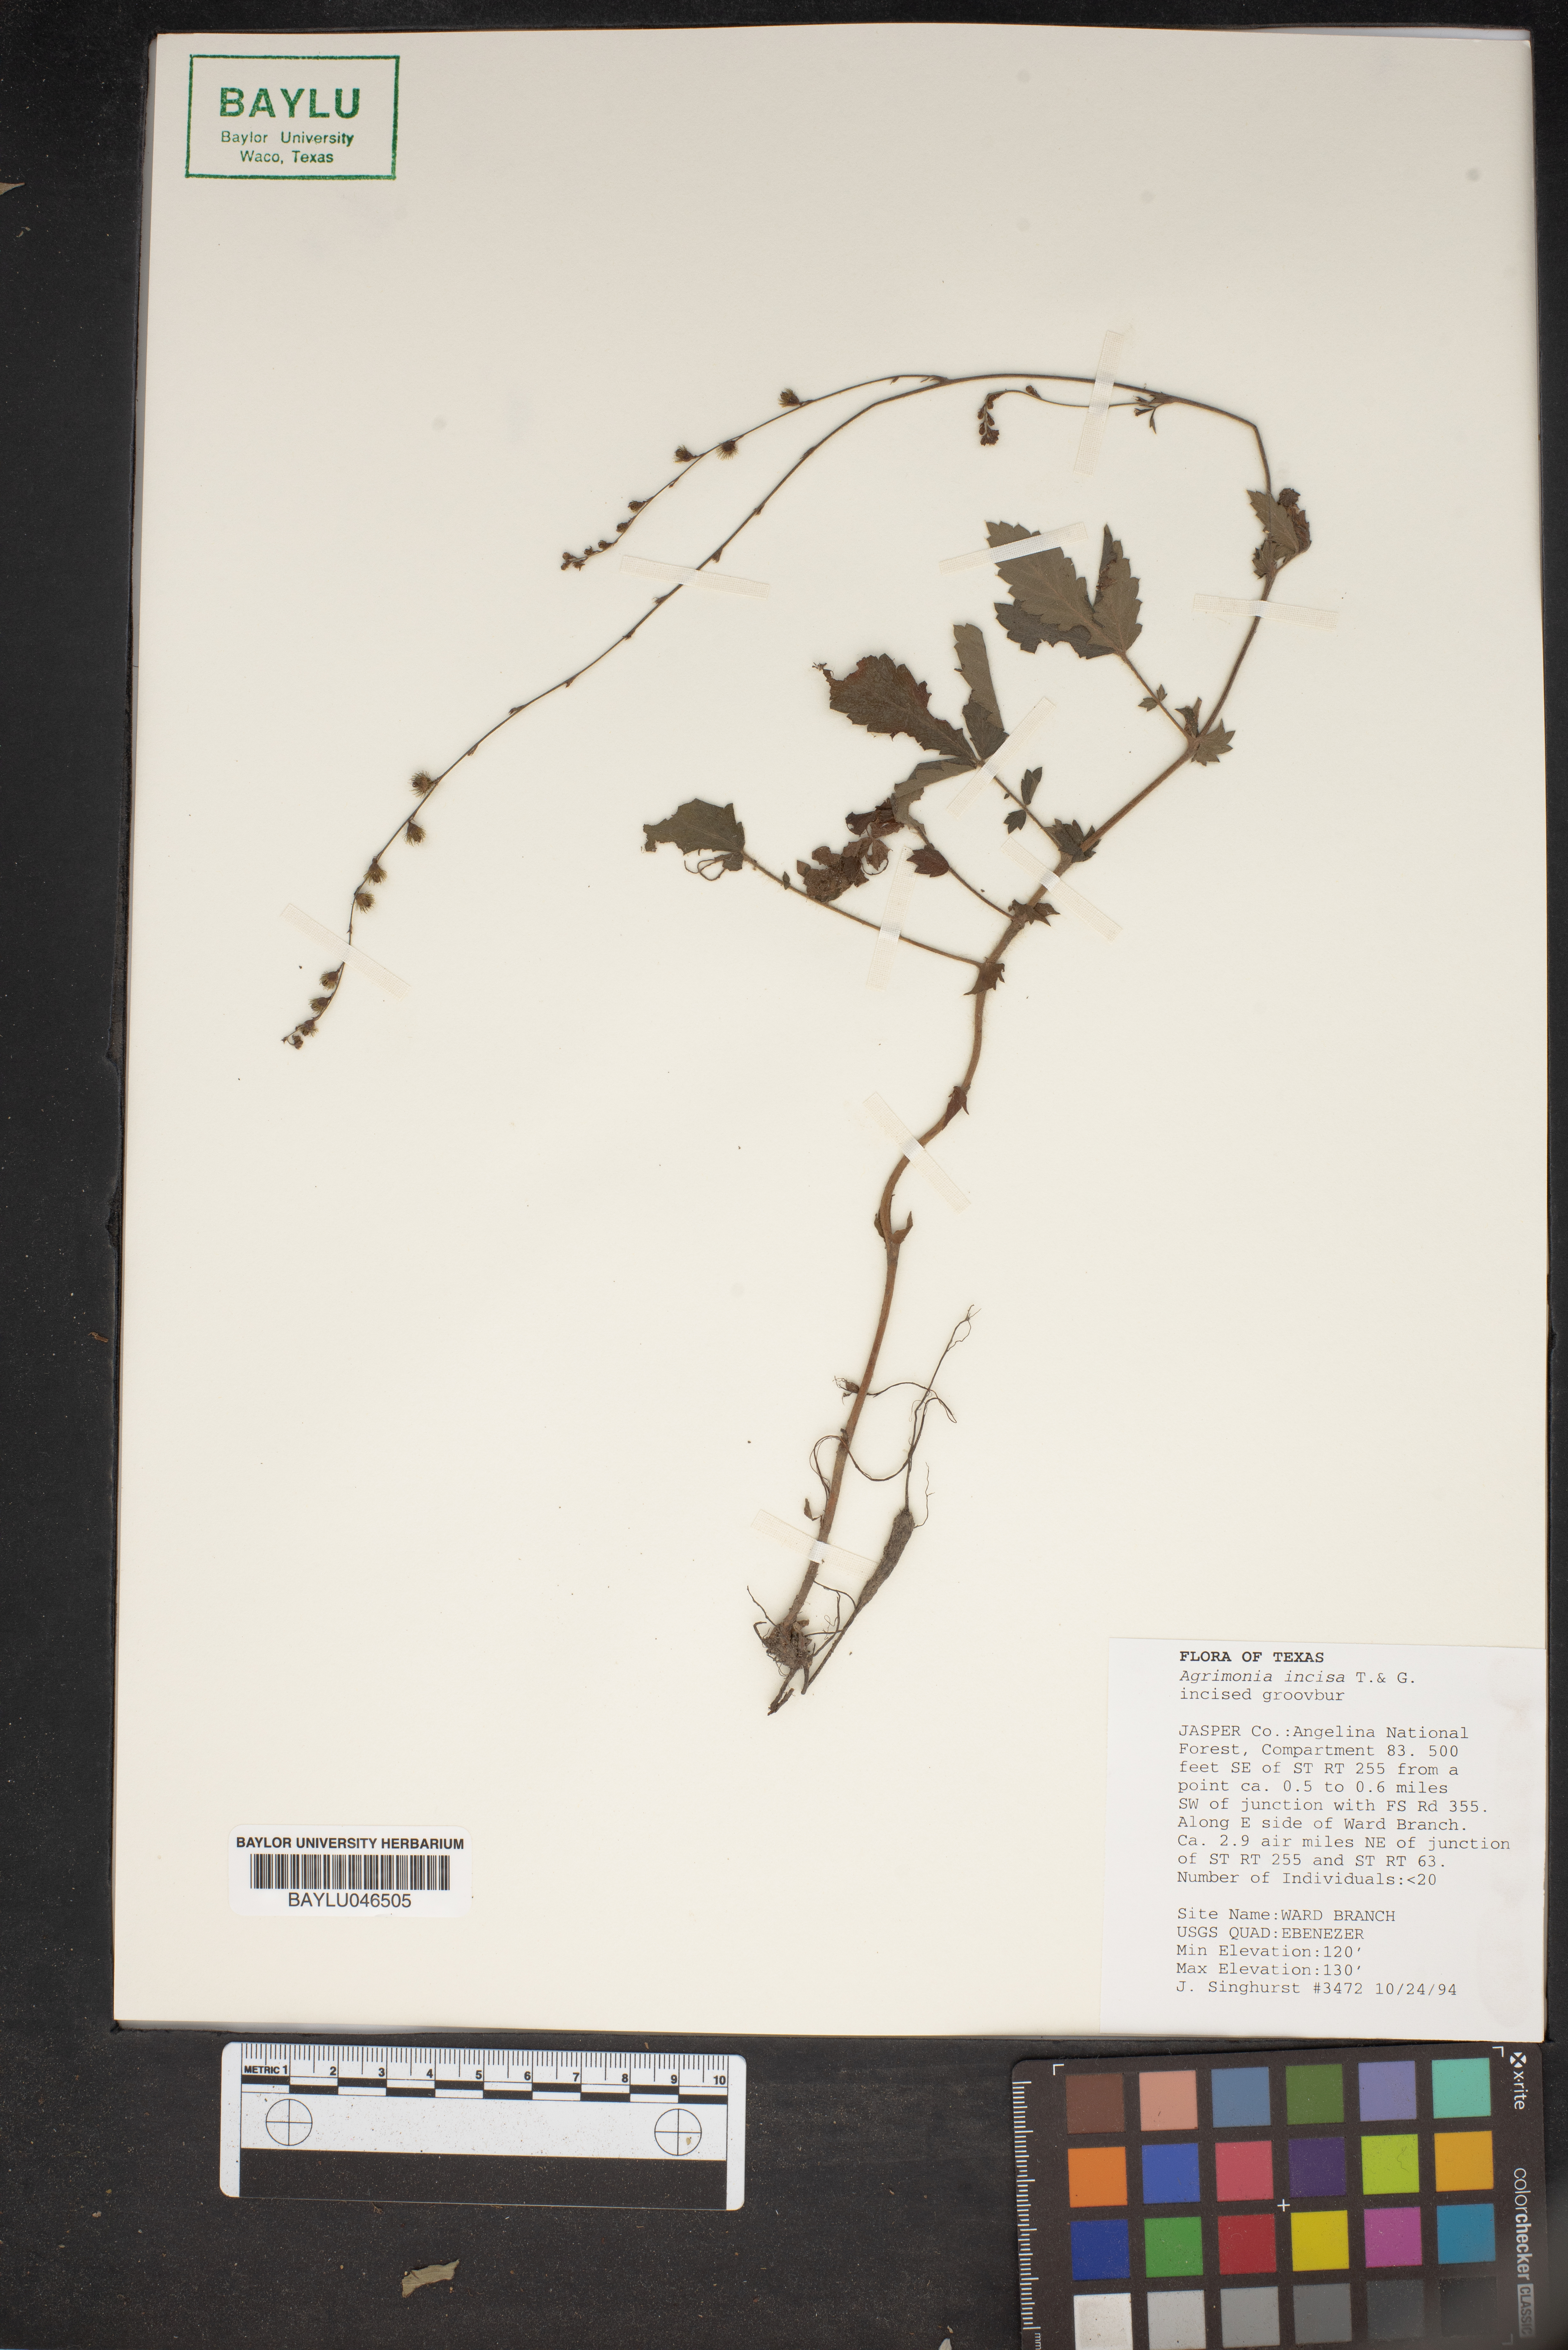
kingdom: Plantae
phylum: Tracheophyta
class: Magnoliopsida
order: Rosales
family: Rosaceae
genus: Agrimonia
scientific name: Agrimonia incisa
